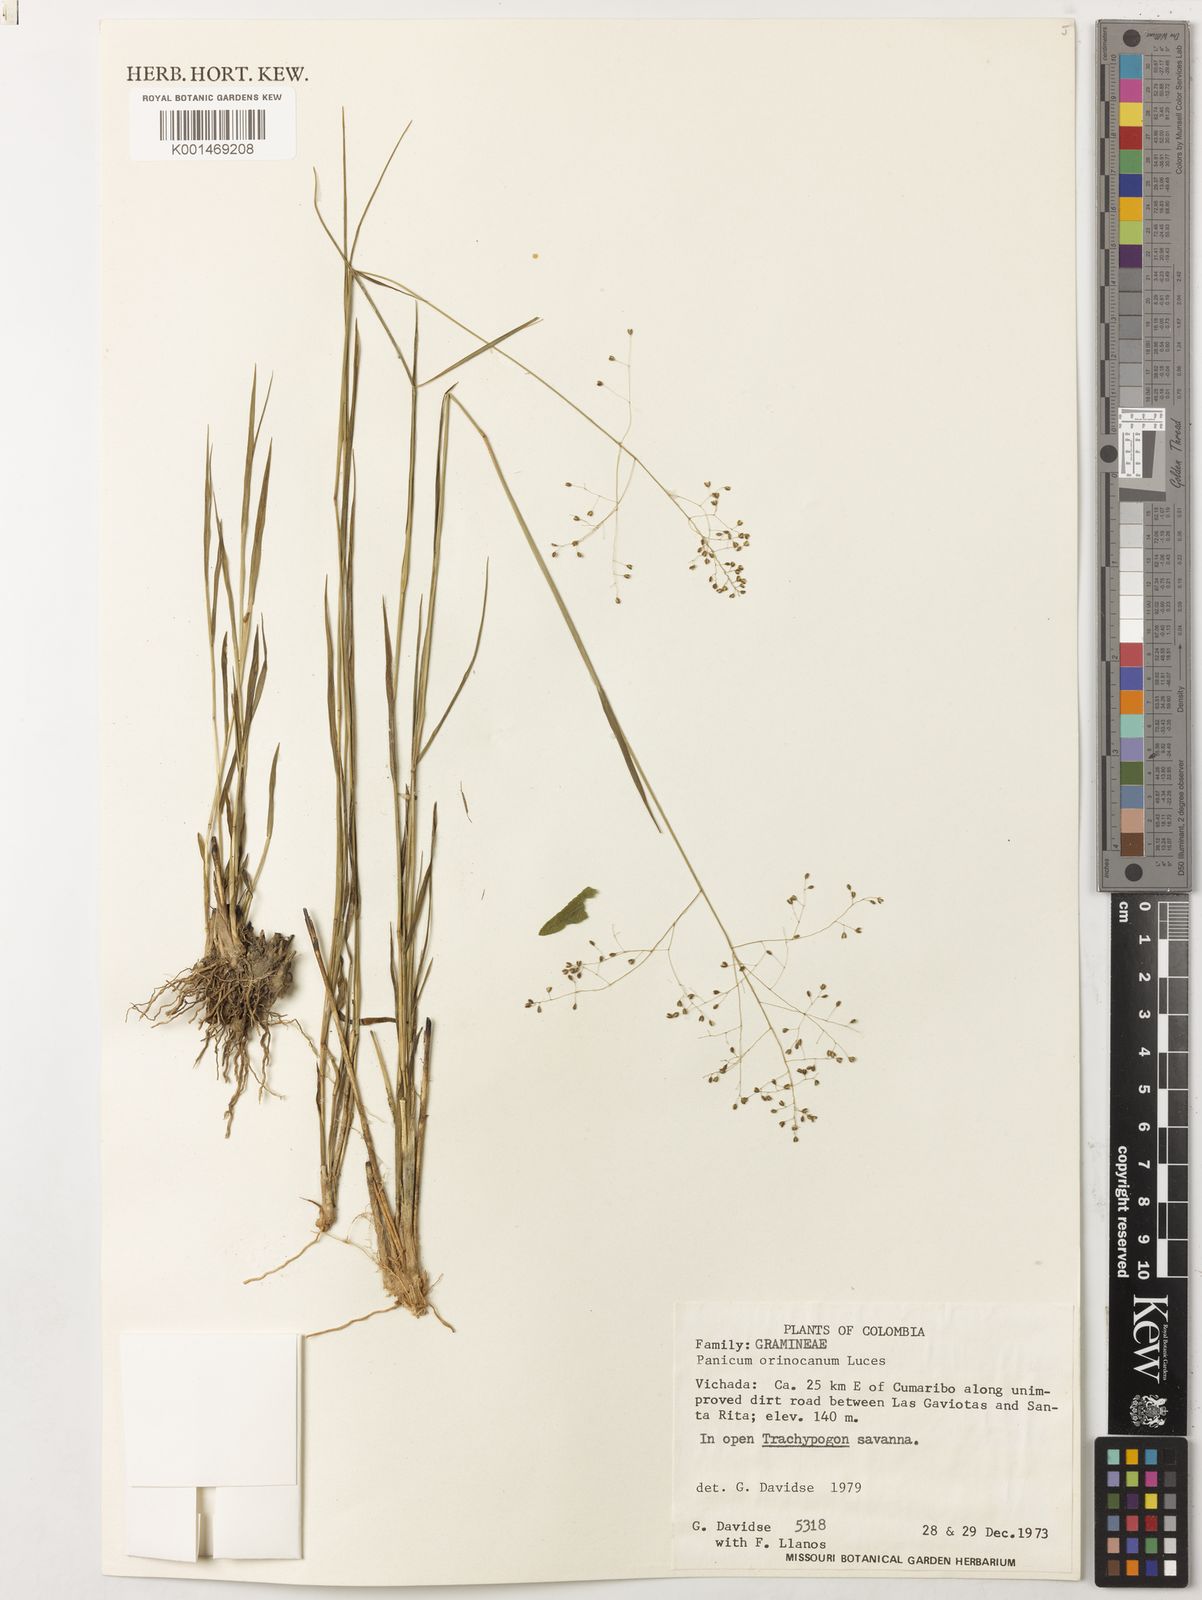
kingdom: Plantae
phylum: Tracheophyta
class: Liliopsida
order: Poales
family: Poaceae
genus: Trichanthecium
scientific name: Trichanthecium orinocanum
